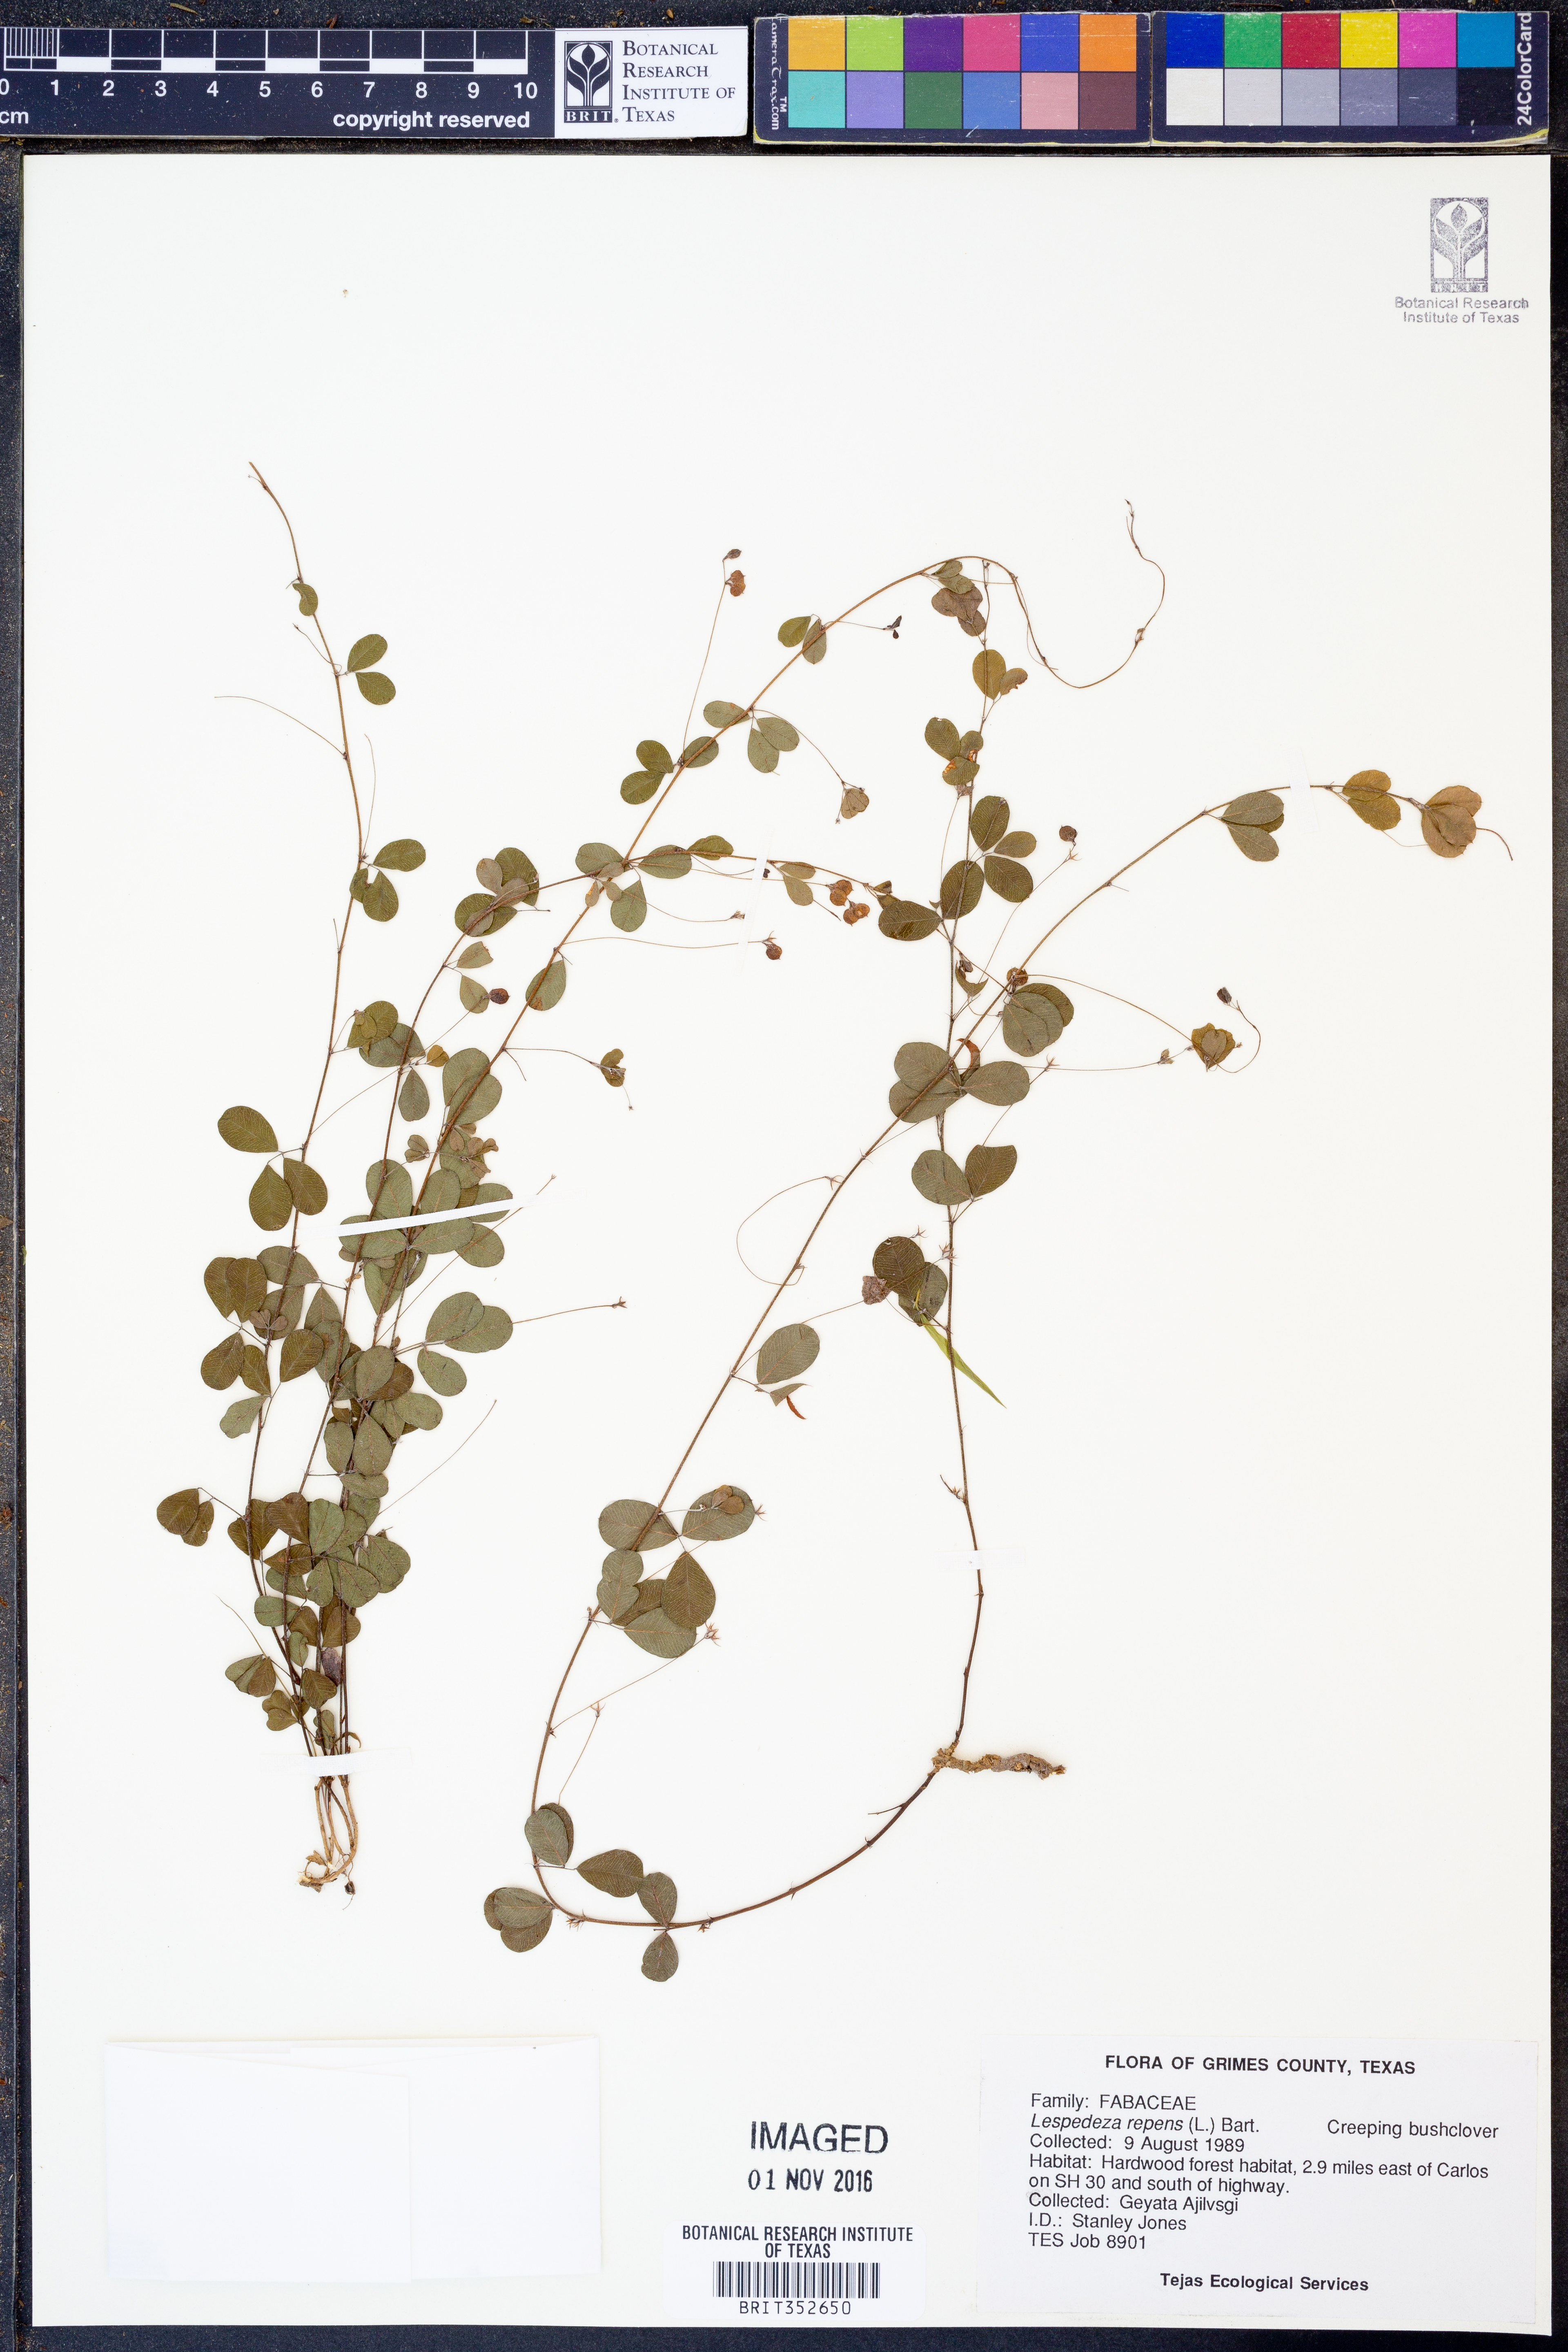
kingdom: Plantae
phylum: Tracheophyta
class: Magnoliopsida
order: Fabales
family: Fabaceae
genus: Lespedeza
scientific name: Lespedeza repens
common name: Creeping bush-clover
